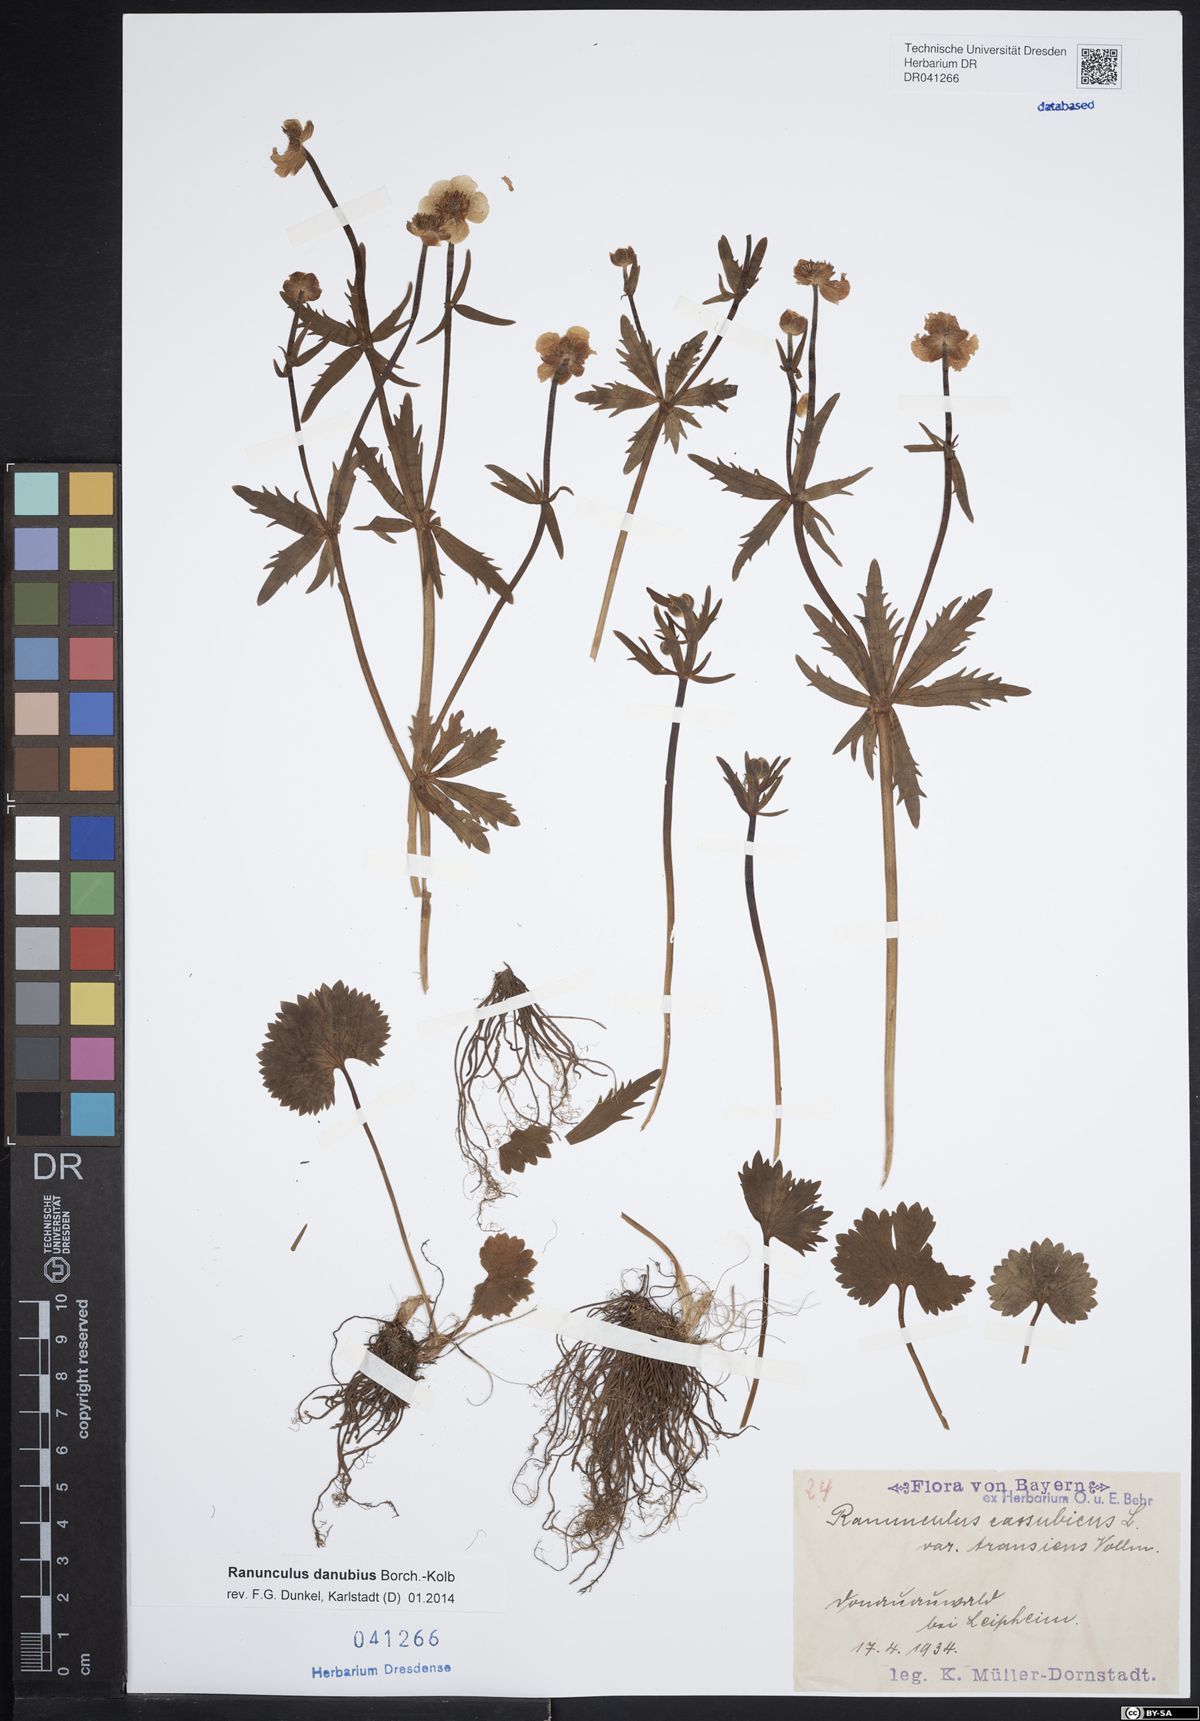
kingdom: Plantae
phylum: Tracheophyta
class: Magnoliopsida
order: Ranunculales
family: Ranunculaceae
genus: Ranunculus
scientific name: Ranunculus danubius
